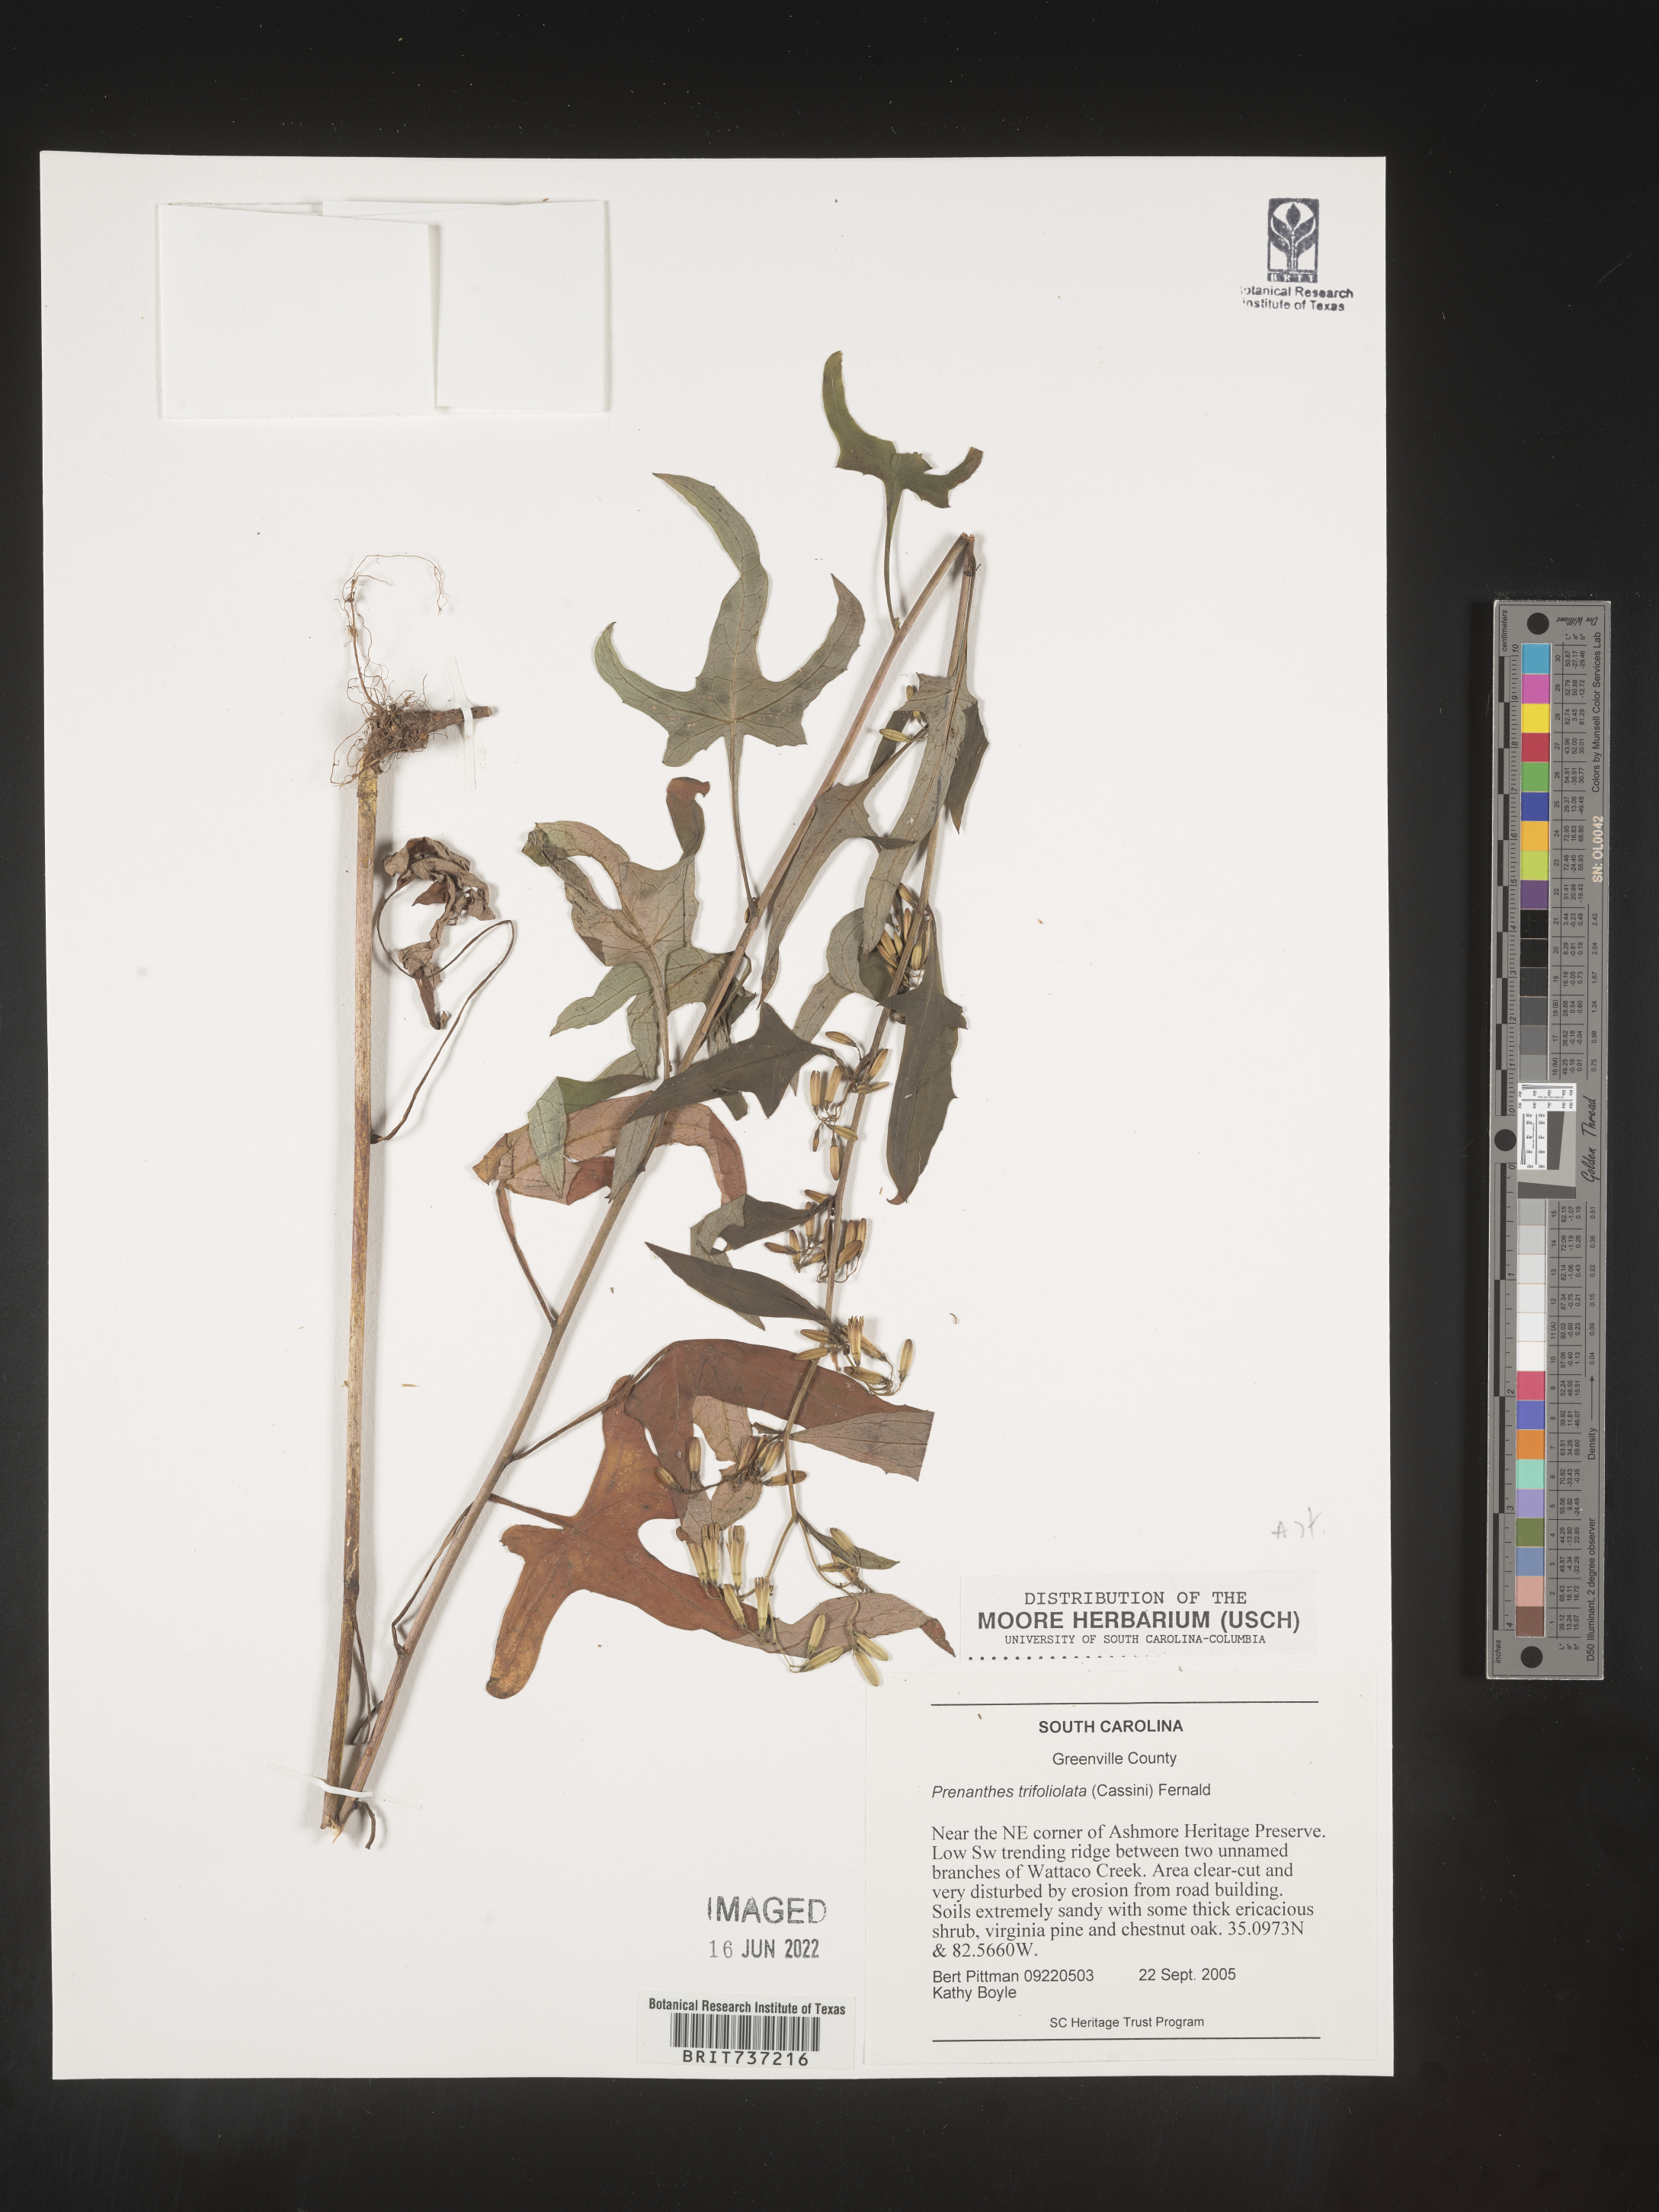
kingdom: Plantae
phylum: Tracheophyta
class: Magnoliopsida
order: Asterales
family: Asteraceae
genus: Nabalus
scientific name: Nabalus trifoliolatus
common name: Gall-of-the-earth
